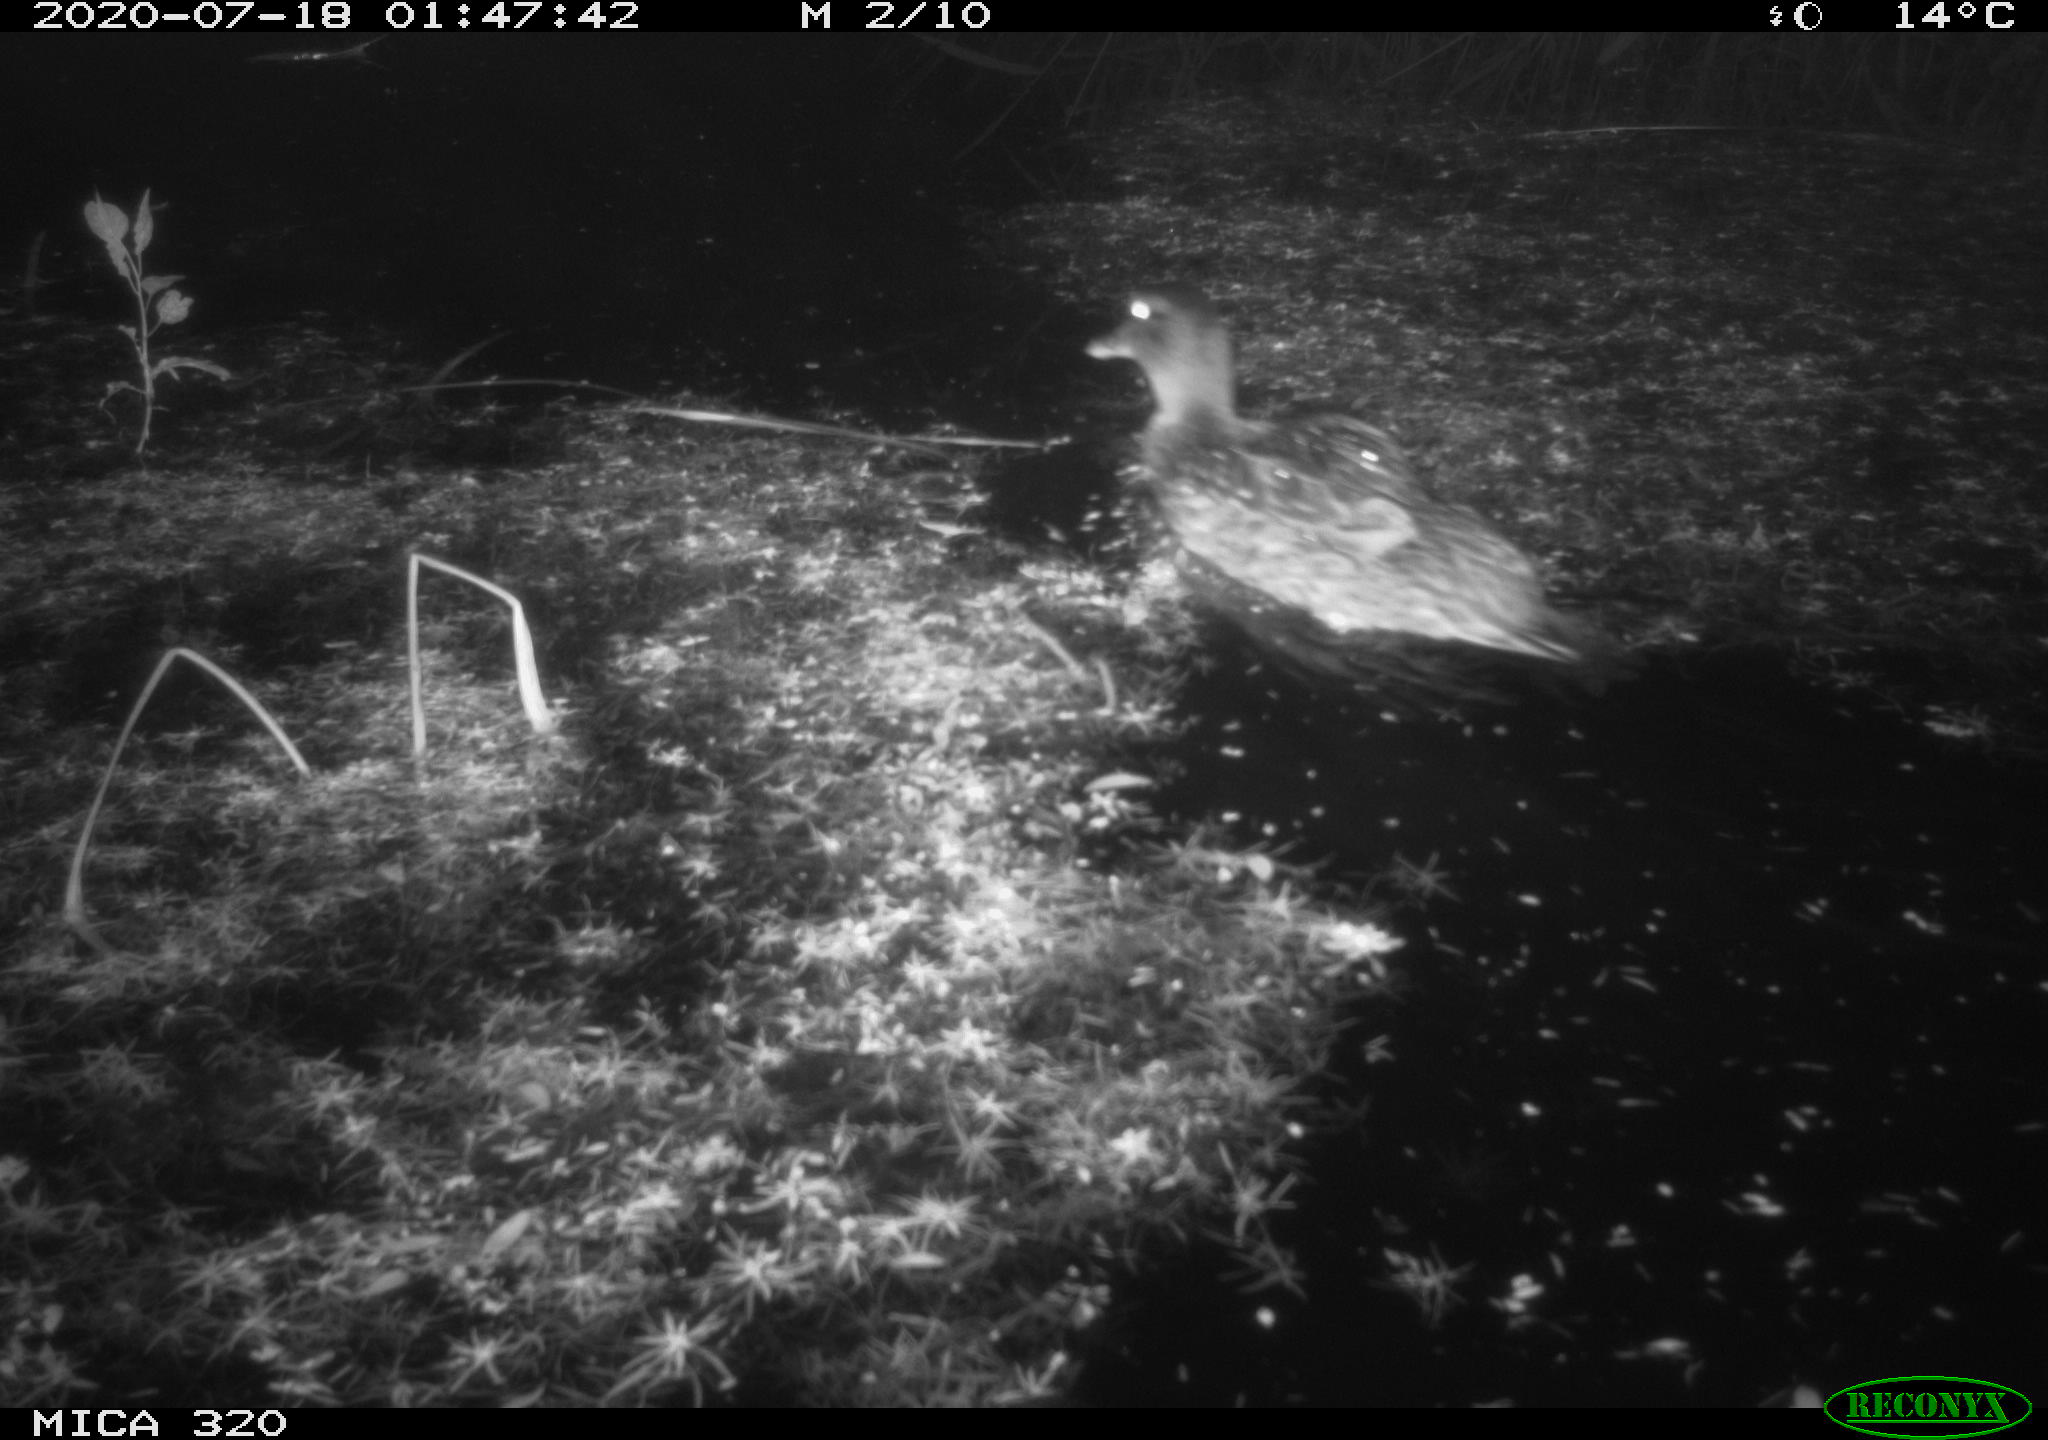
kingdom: Animalia
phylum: Chordata
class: Aves
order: Anseriformes
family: Anatidae
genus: Anas
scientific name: Anas platyrhynchos
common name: Mallard
